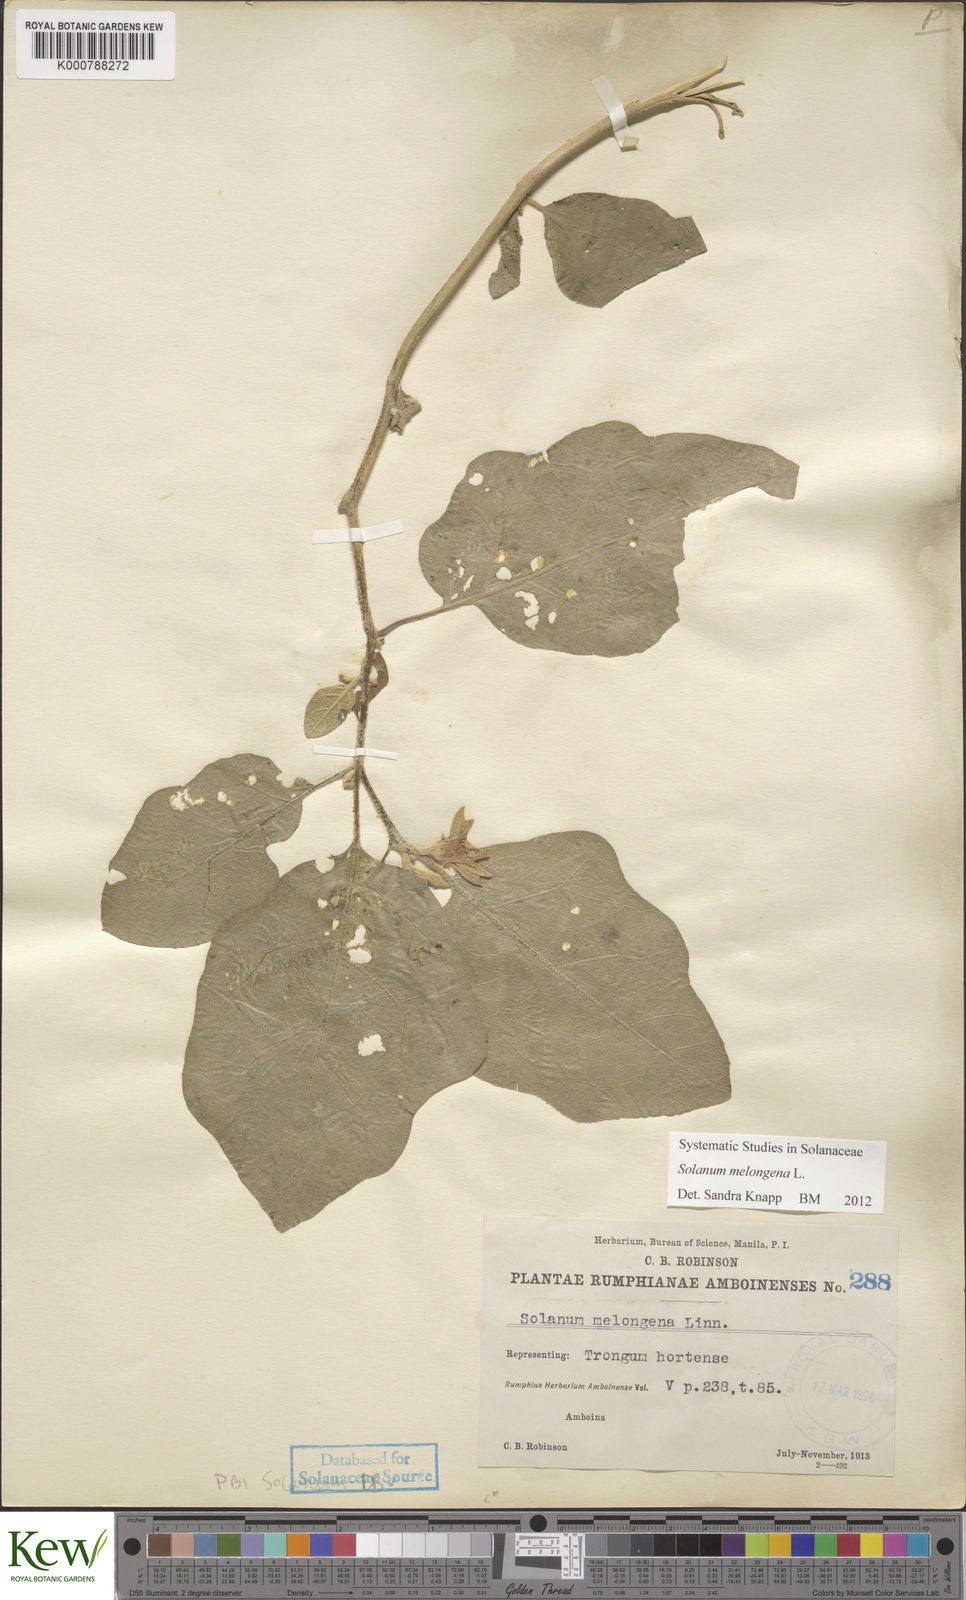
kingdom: Plantae
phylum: Tracheophyta
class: Magnoliopsida
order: Solanales
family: Solanaceae
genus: Solanum
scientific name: Solanum melongena
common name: Eggplant
